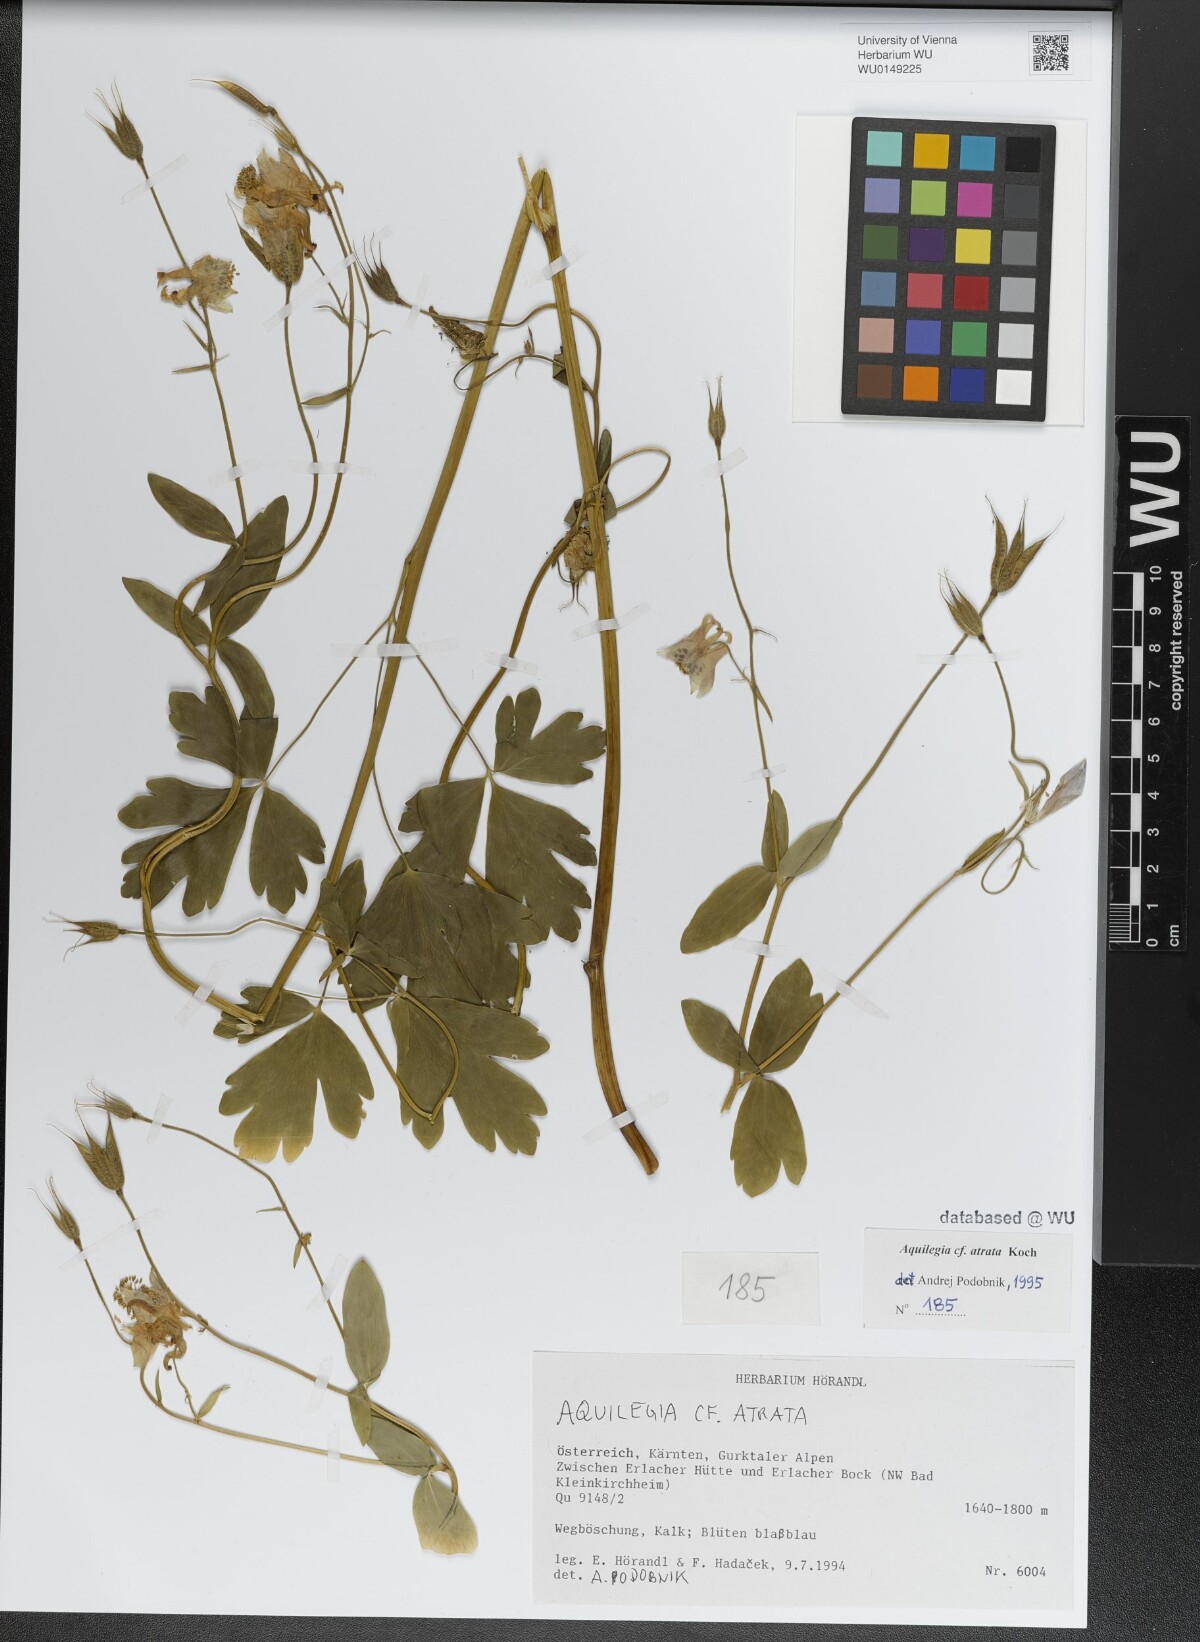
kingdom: Plantae
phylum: Tracheophyta
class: Magnoliopsida
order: Ranunculales
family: Ranunculaceae
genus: Aquilegia
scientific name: Aquilegia atrata
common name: Dark columbine
